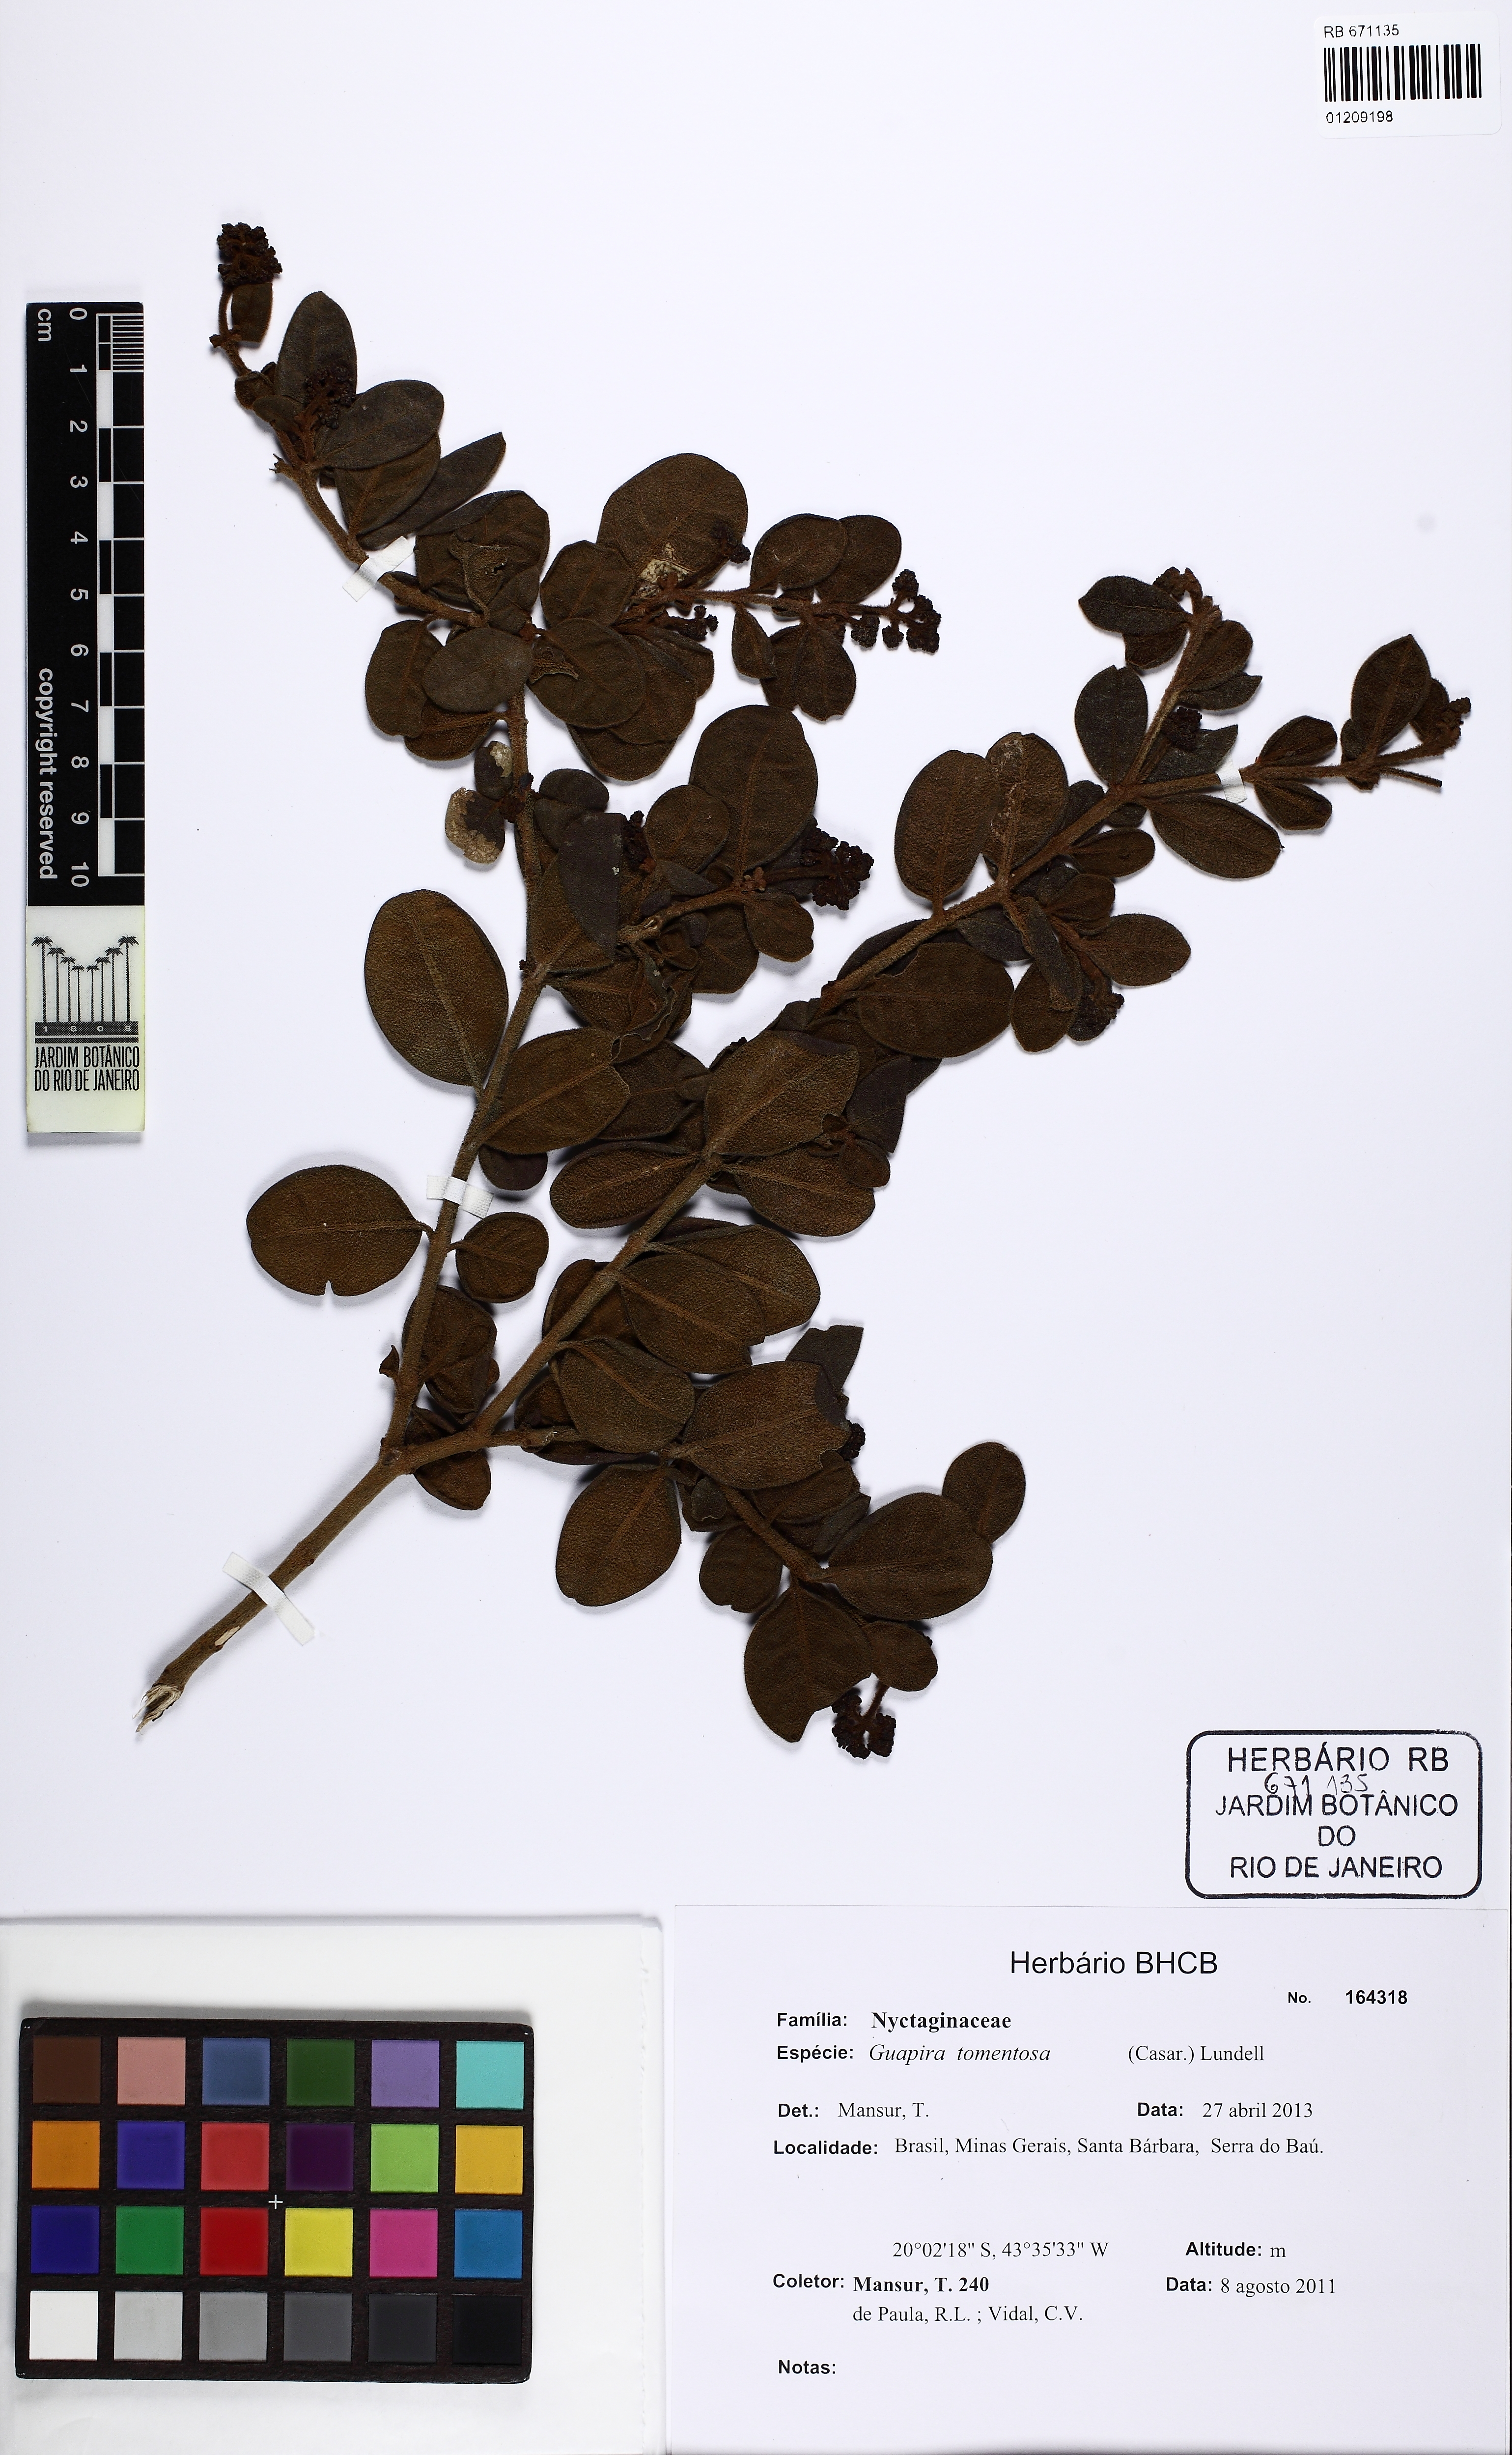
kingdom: Plantae
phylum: Tracheophyta
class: Magnoliopsida
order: Caryophyllales
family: Nyctaginaceae
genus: Guapira
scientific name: Guapira tomentosa
